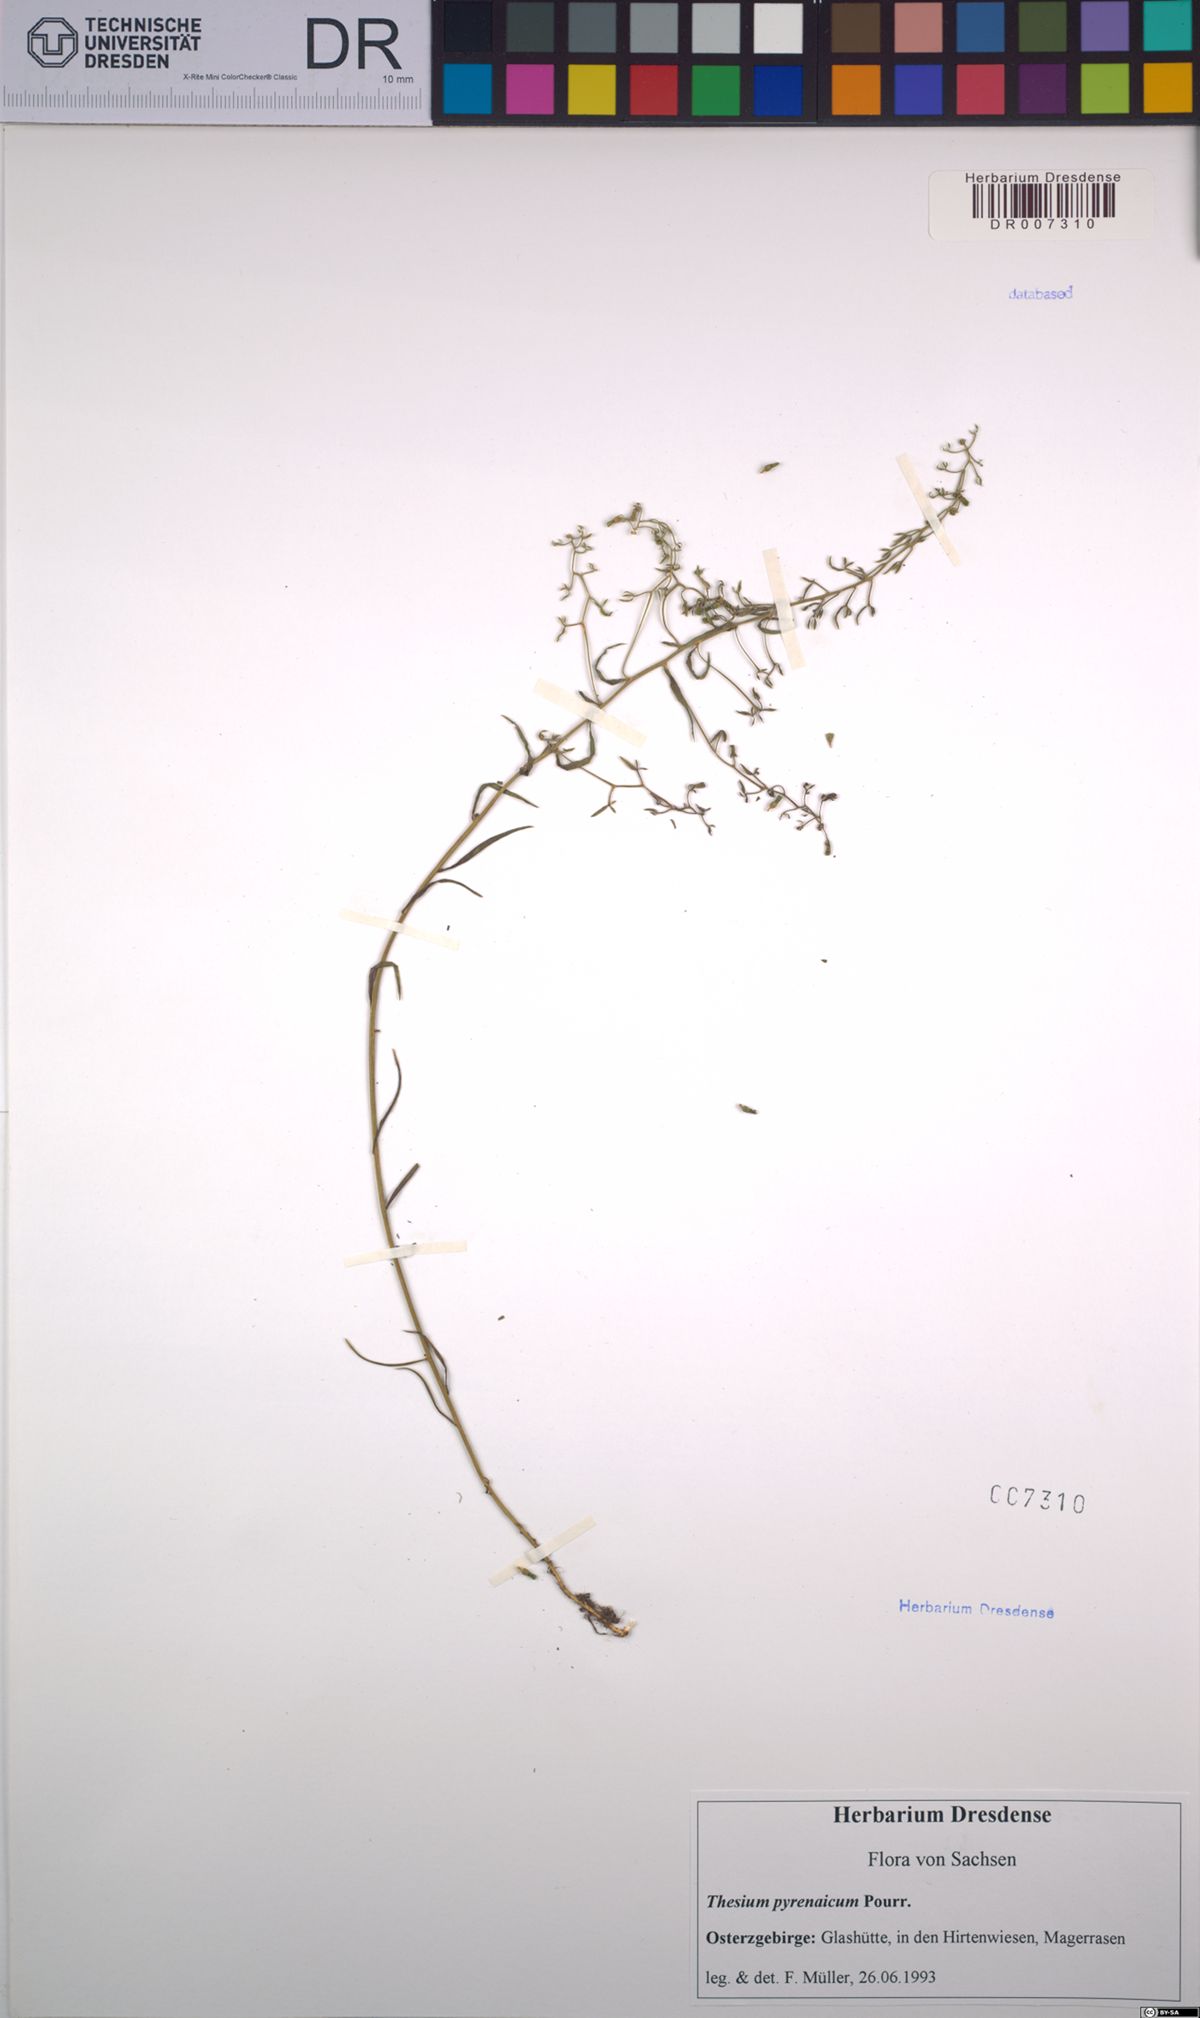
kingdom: Plantae
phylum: Tracheophyta
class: Magnoliopsida
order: Santalales
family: Thesiaceae
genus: Thesium
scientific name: Thesium pyrenaicum
